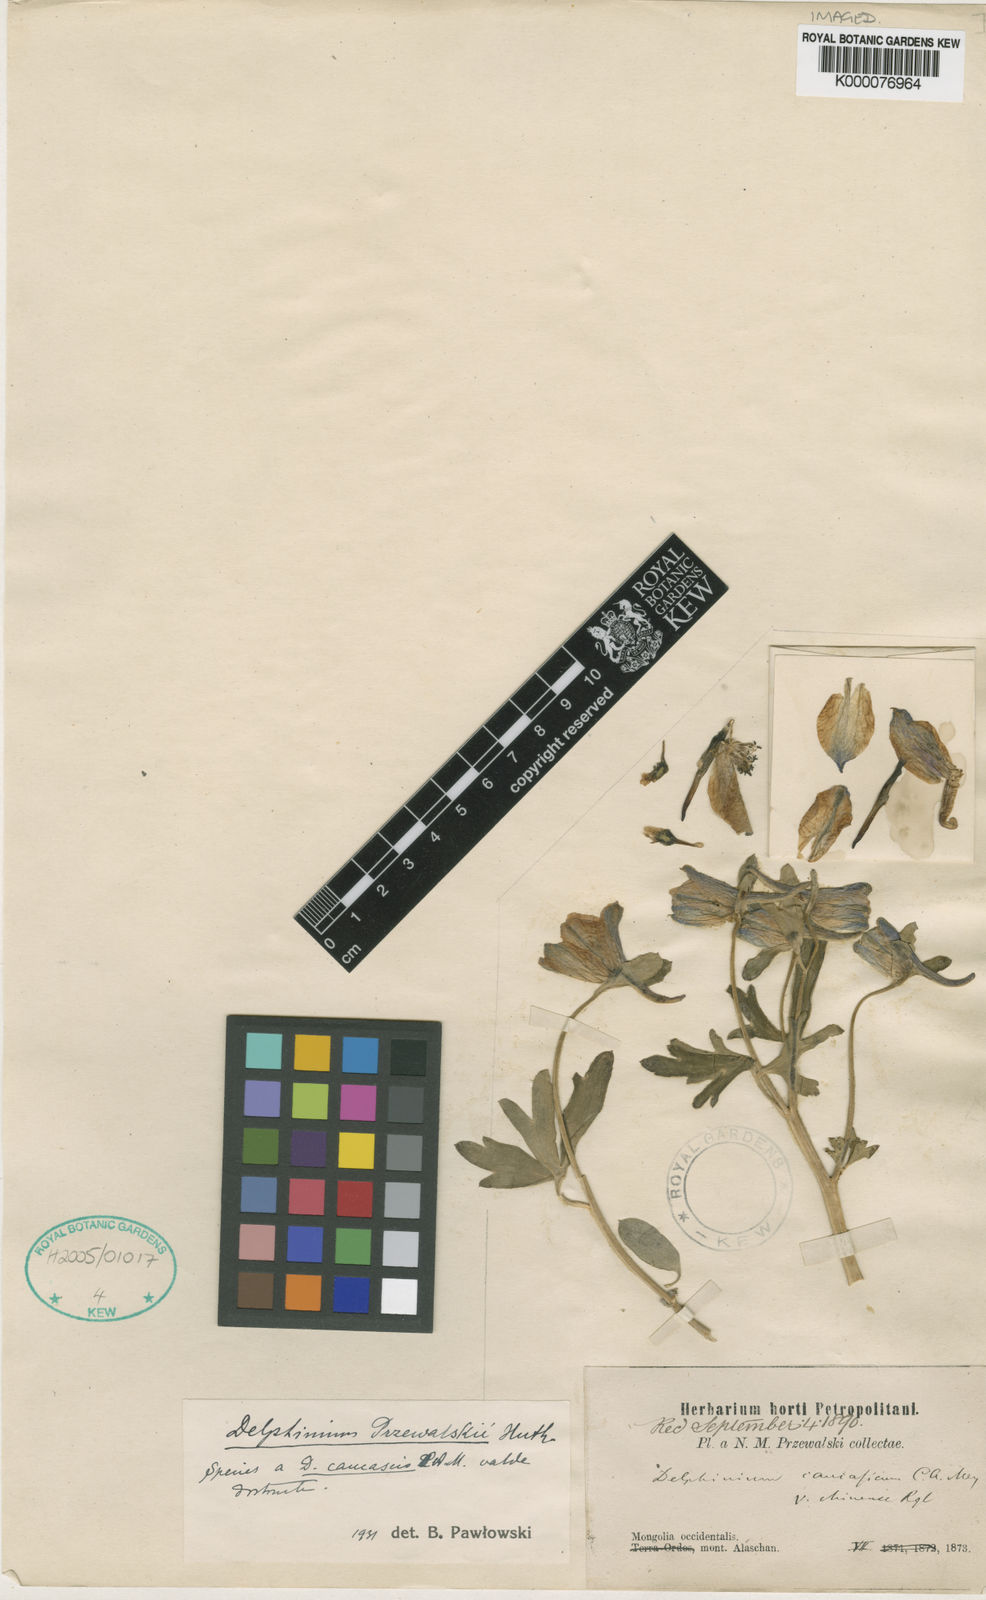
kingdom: Plantae
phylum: Tracheophyta
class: Magnoliopsida
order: Ranunculales
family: Ranunculaceae
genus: Delphinium
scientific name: Delphinium albocoeruleum
